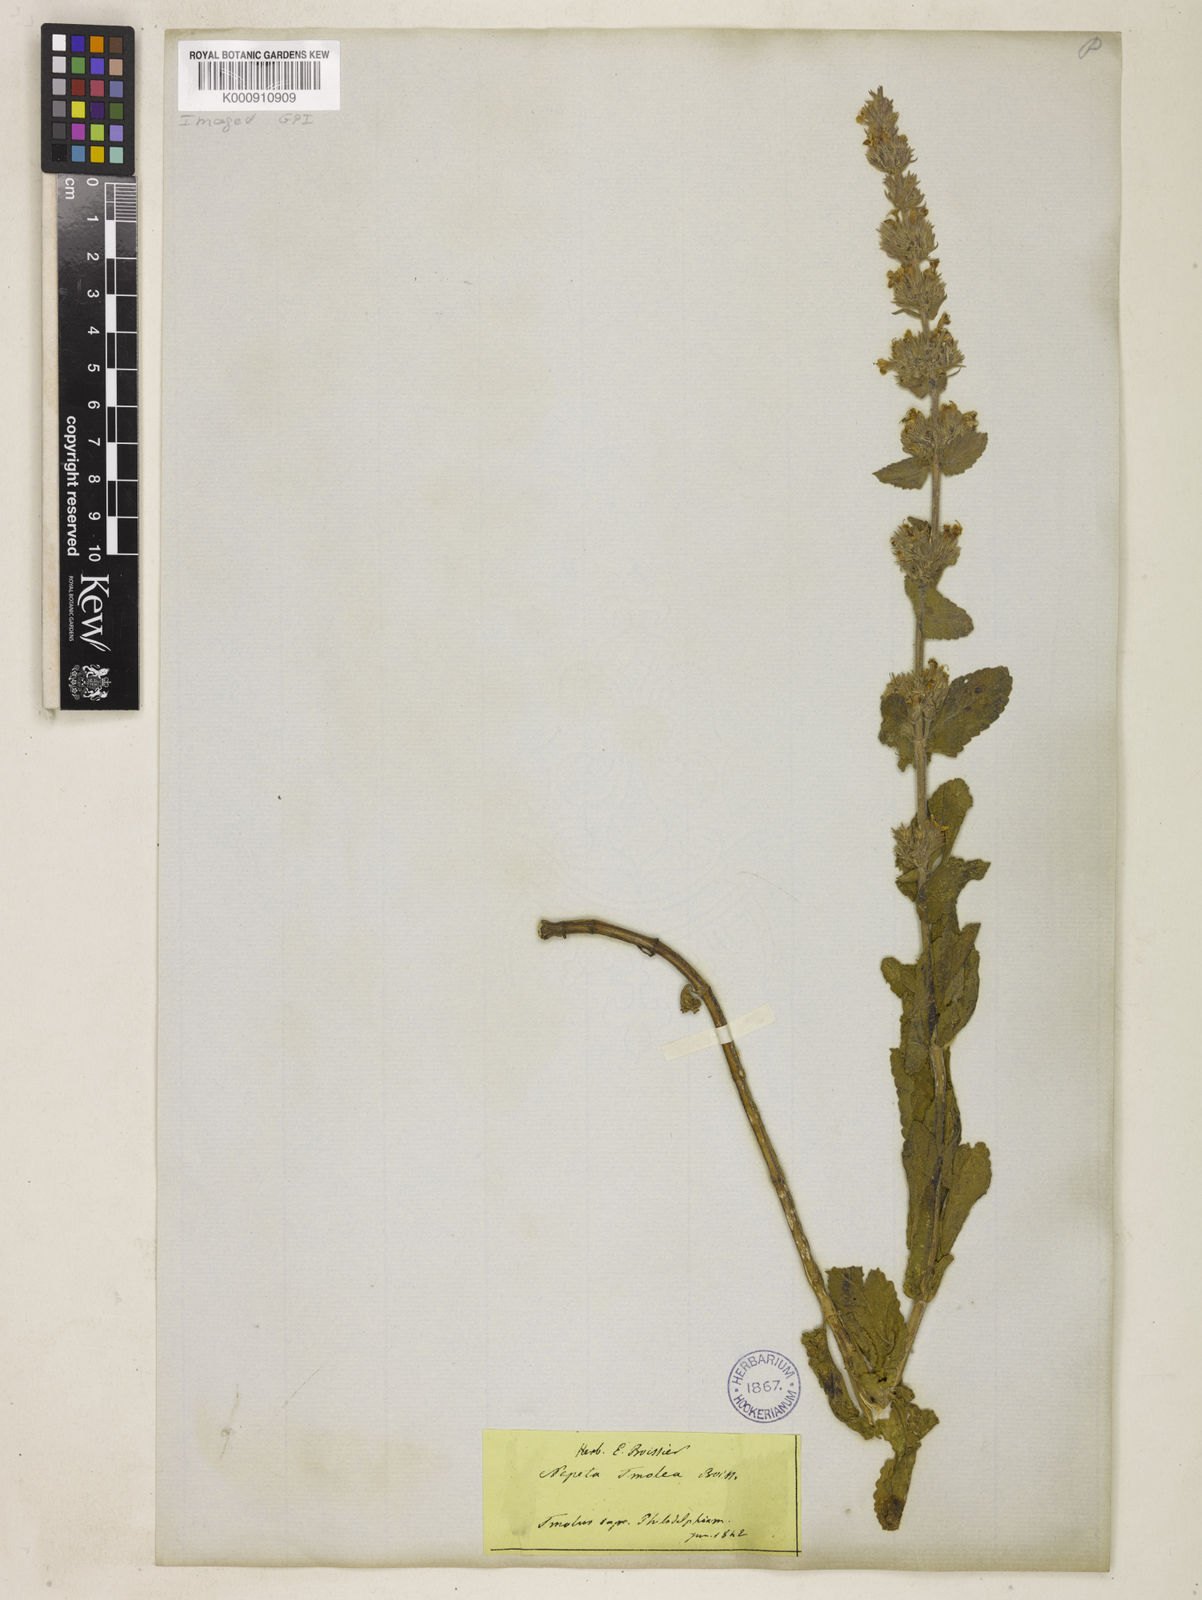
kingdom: Plantae
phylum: Tracheophyta
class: Magnoliopsida
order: Lamiales
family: Lamiaceae
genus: Nepeta
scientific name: Nepeta tmolea
